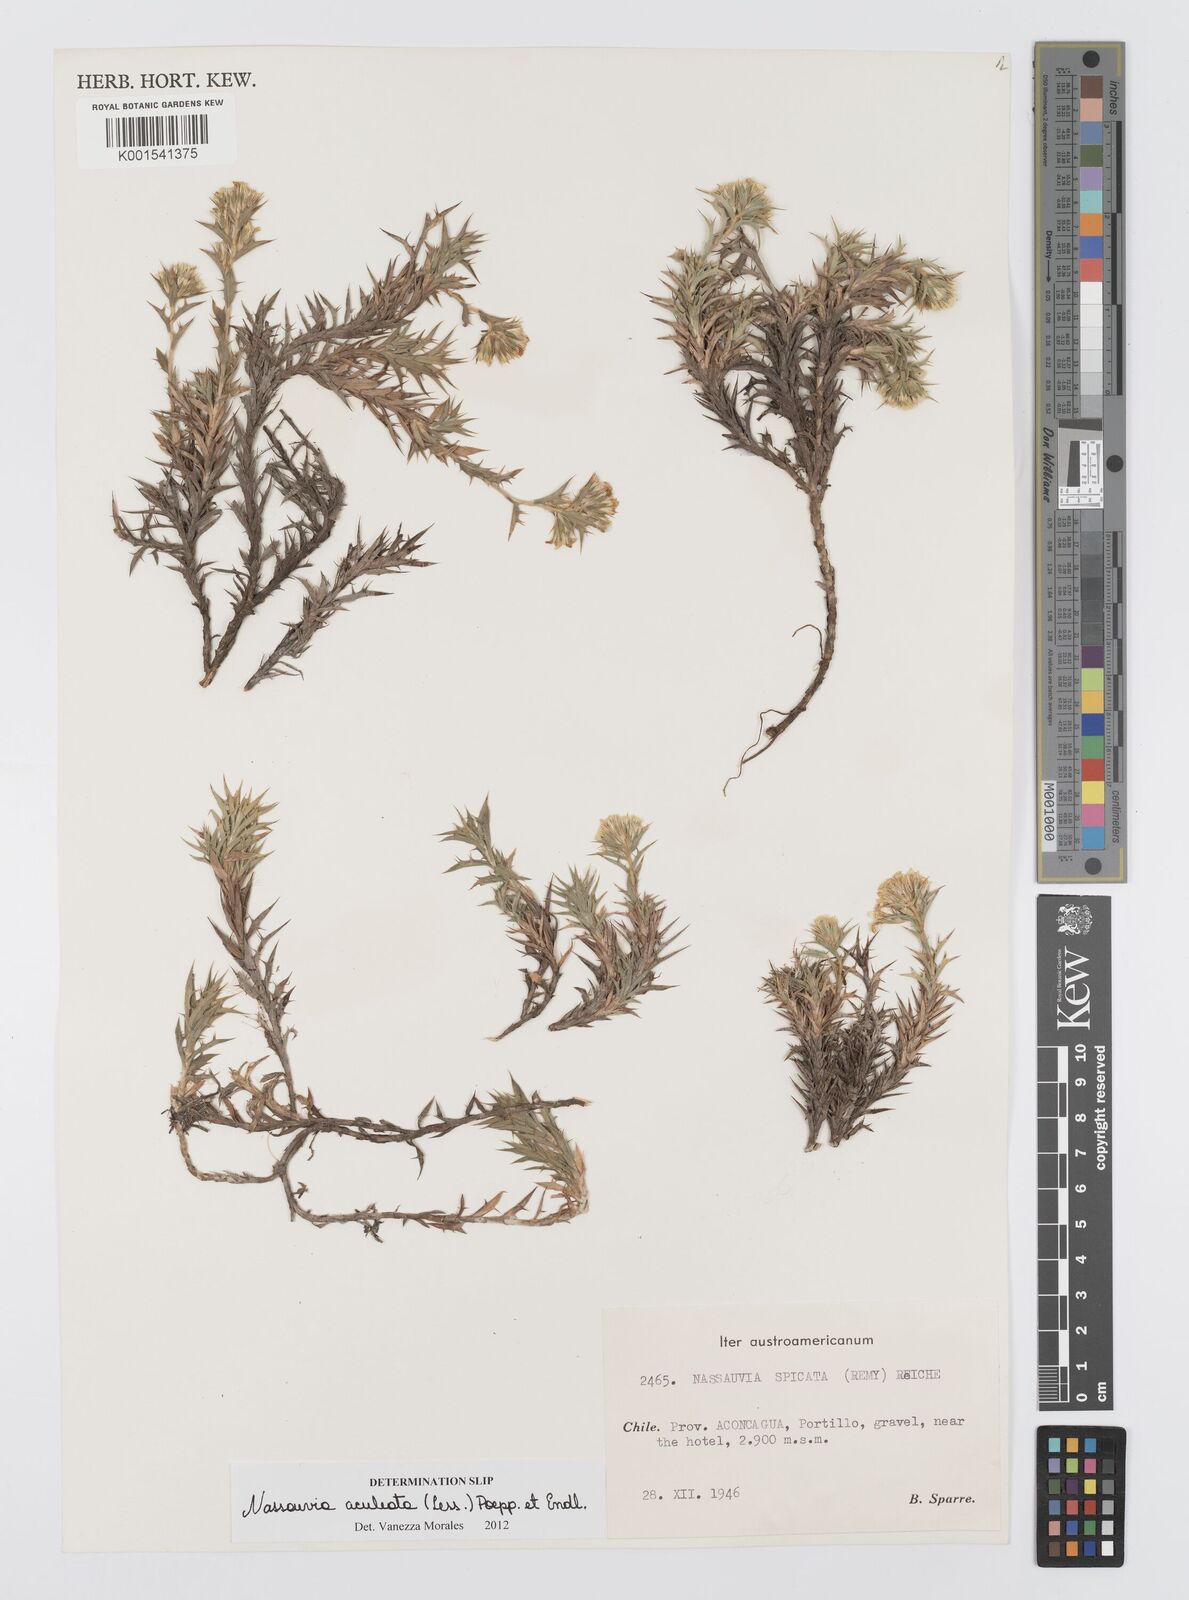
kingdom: Plantae
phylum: Tracheophyta
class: Magnoliopsida
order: Asterales
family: Asteraceae
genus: Nassauvia
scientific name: Nassauvia aculeata
